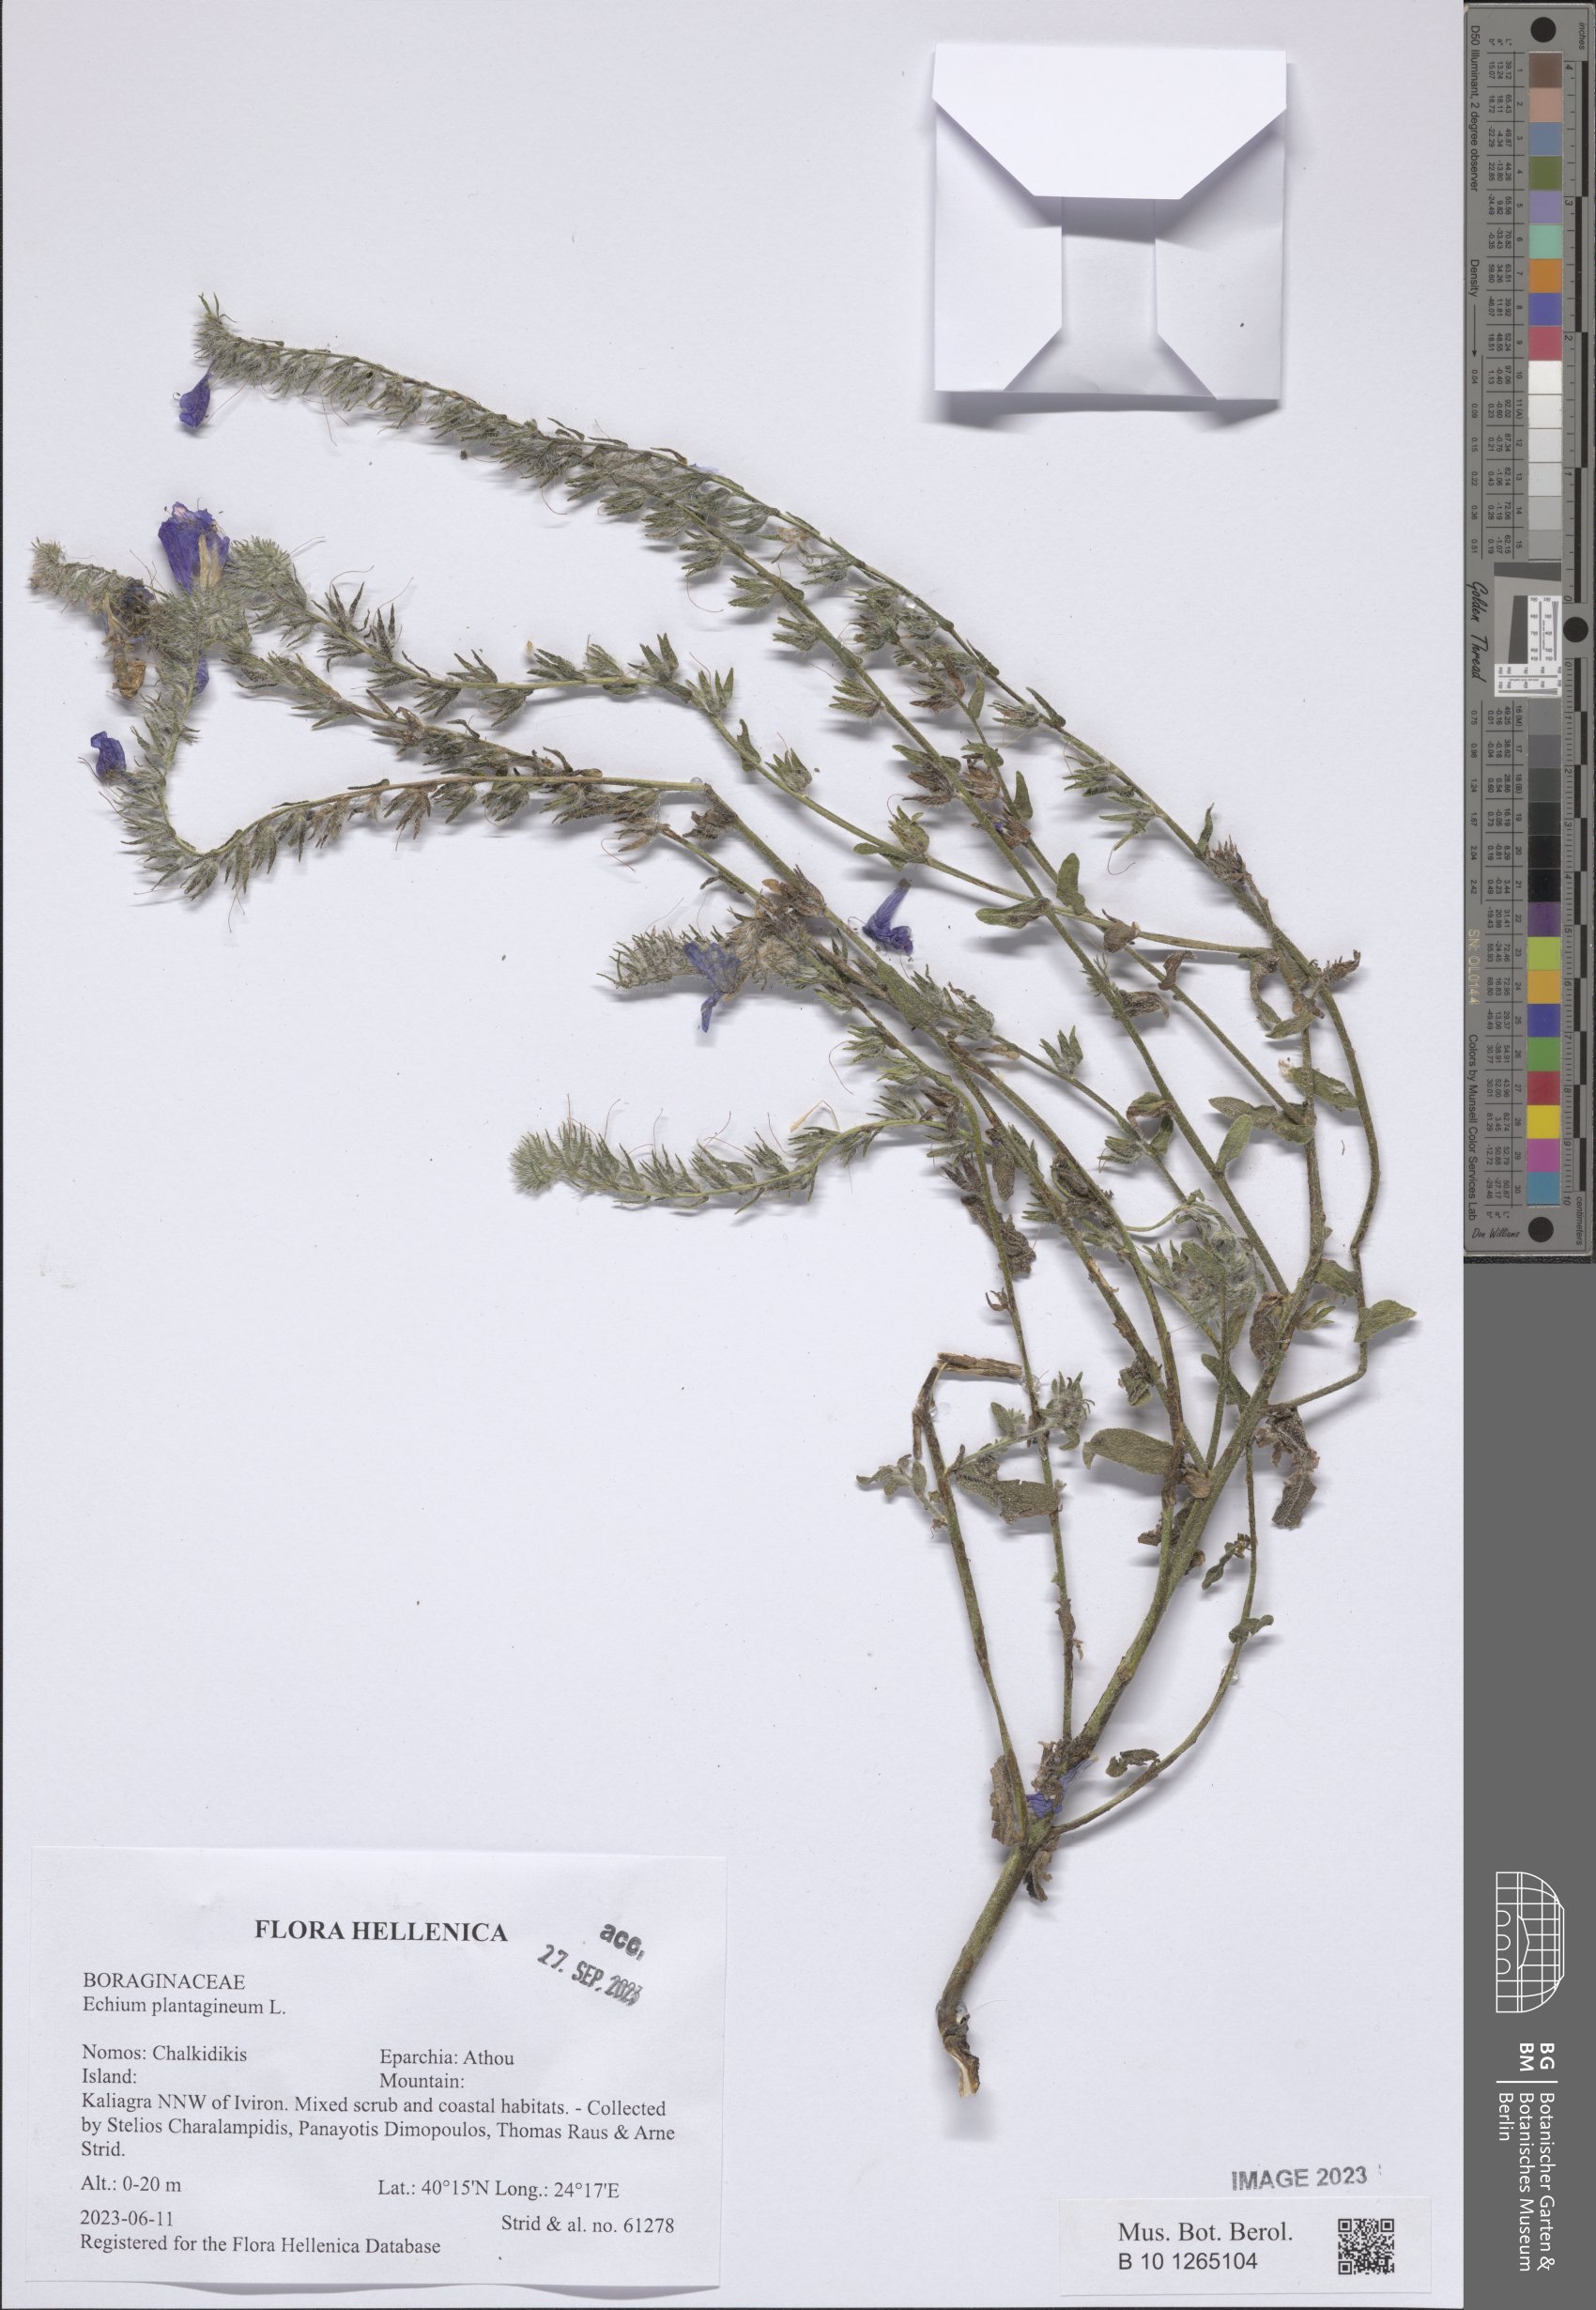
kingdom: Plantae
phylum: Tracheophyta
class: Magnoliopsida
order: Boraginales
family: Boraginaceae
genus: Echium
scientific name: Echium plantagineum
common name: Purple viper's-bugloss
